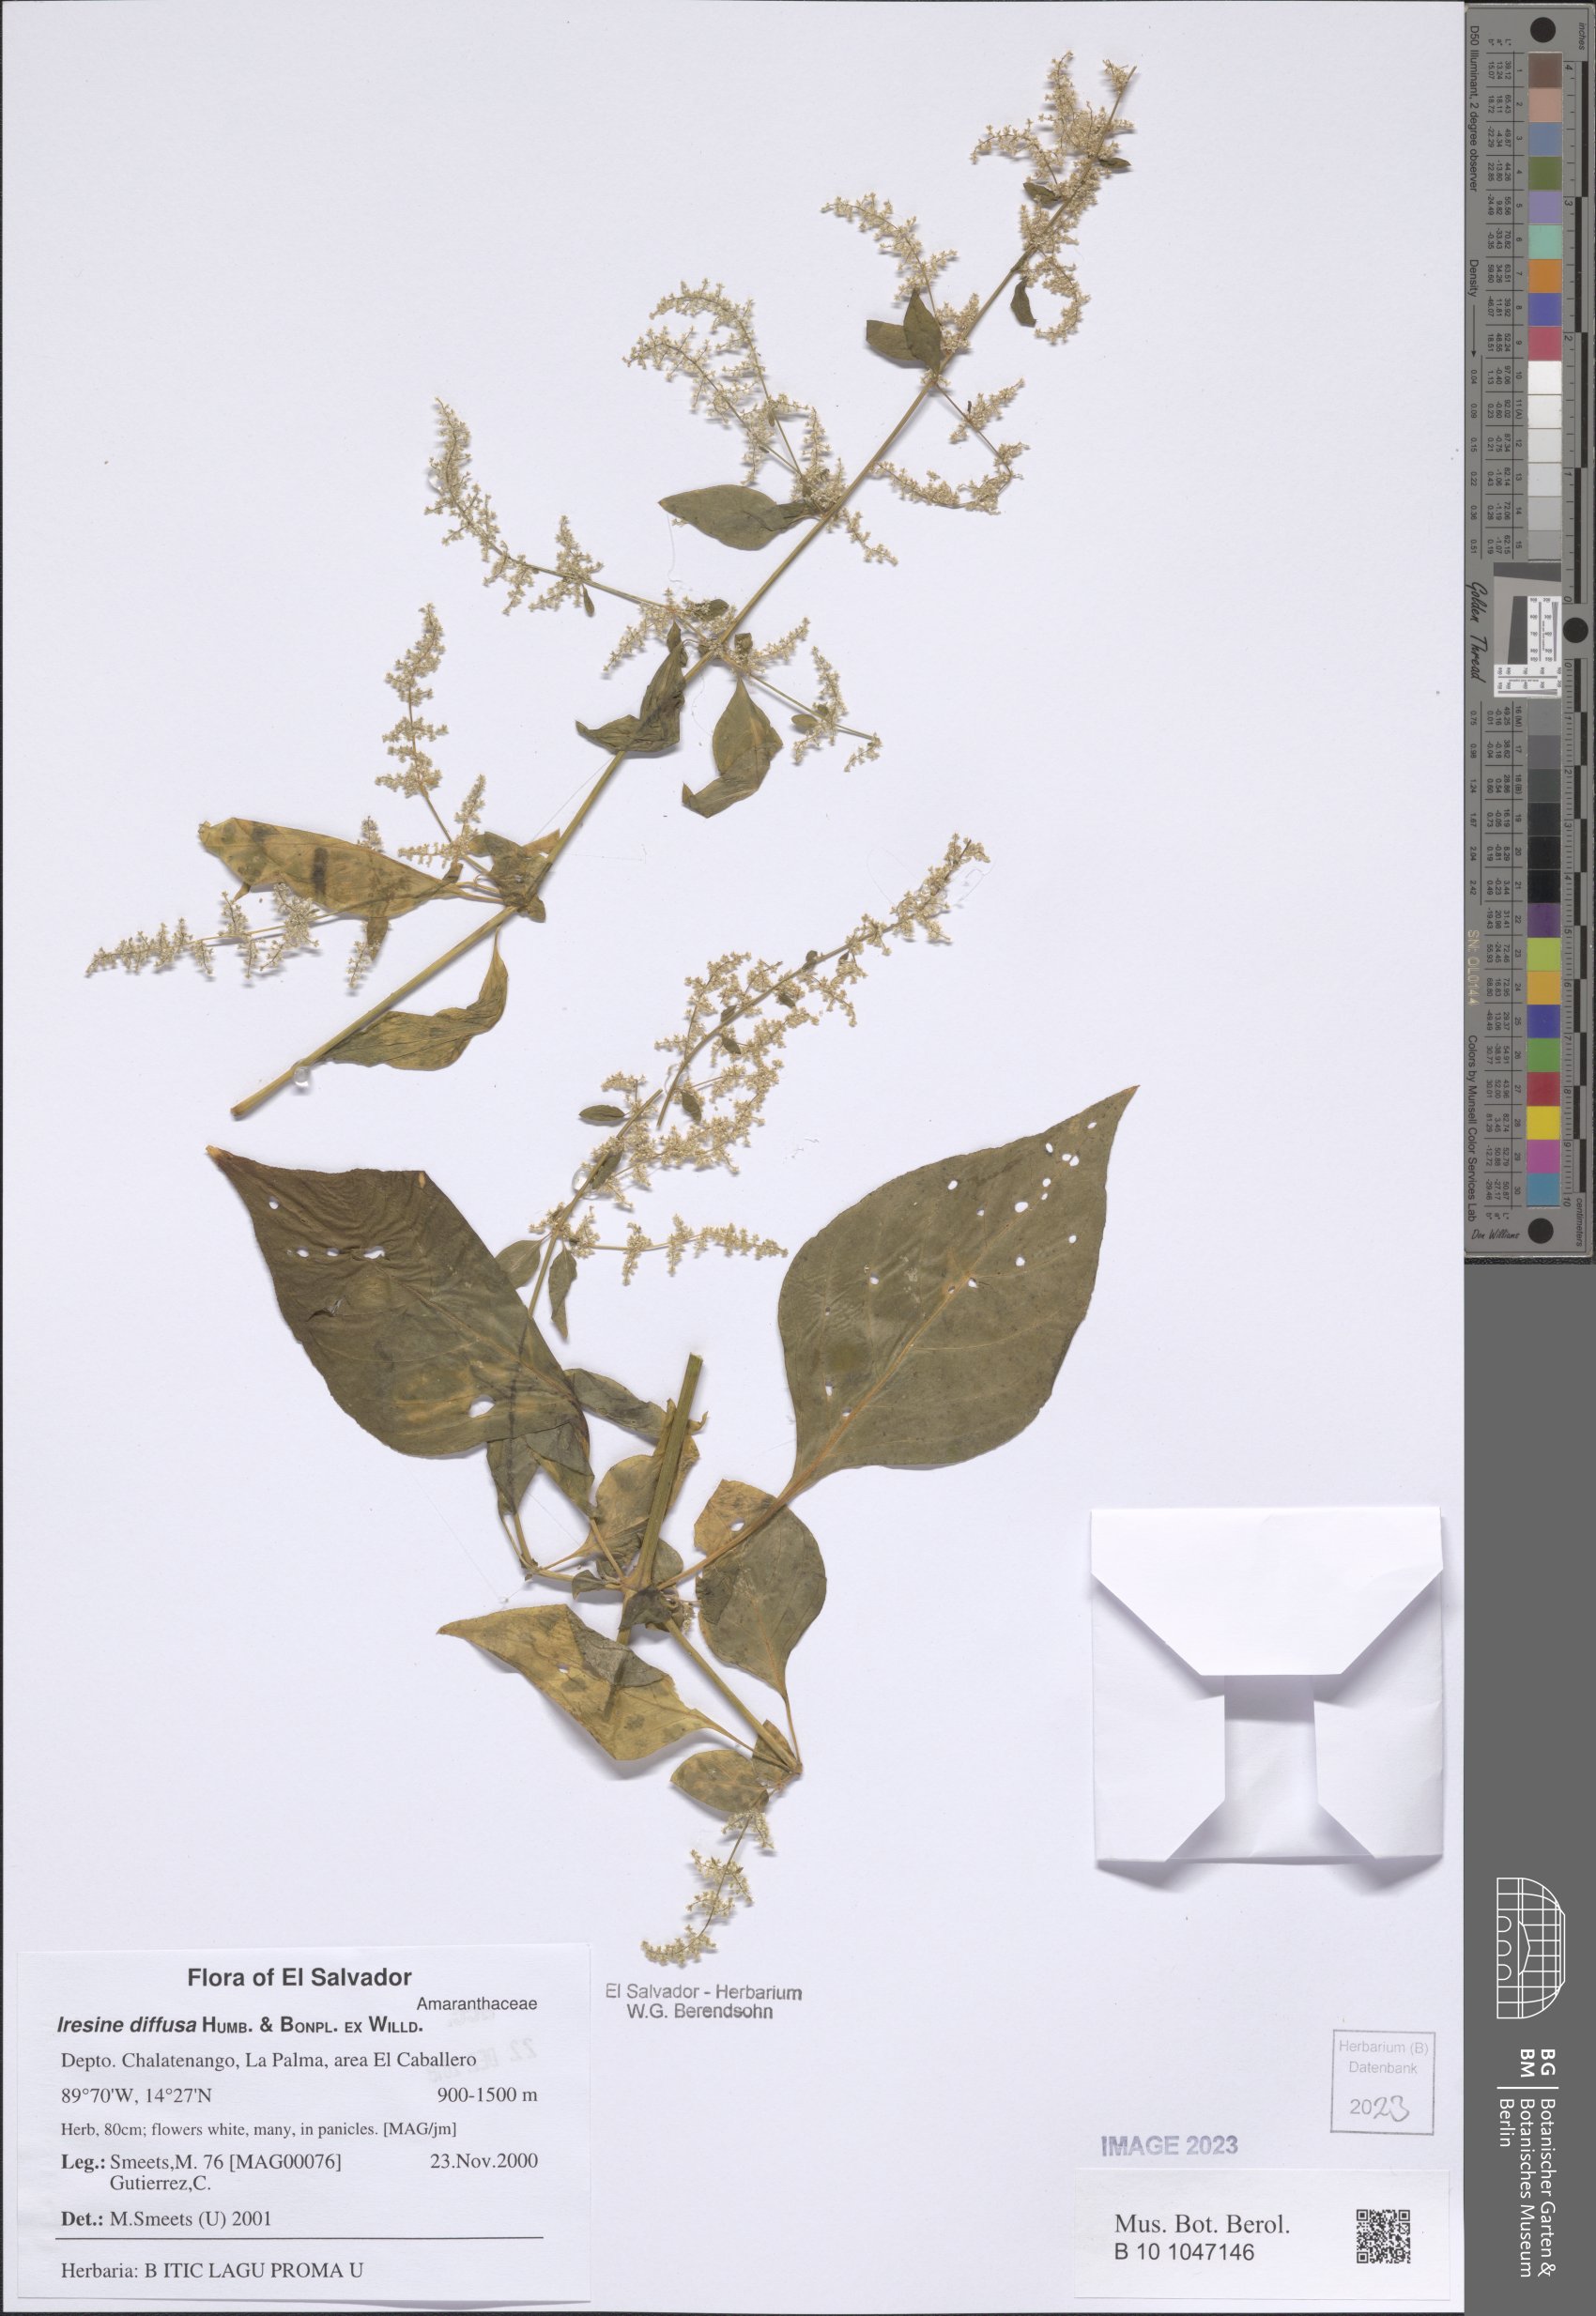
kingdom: Plantae
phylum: Tracheophyta
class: Magnoliopsida
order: Caryophyllales
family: Amaranthaceae
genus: Iresine
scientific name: Iresine diffusa
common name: Juba's-bush
